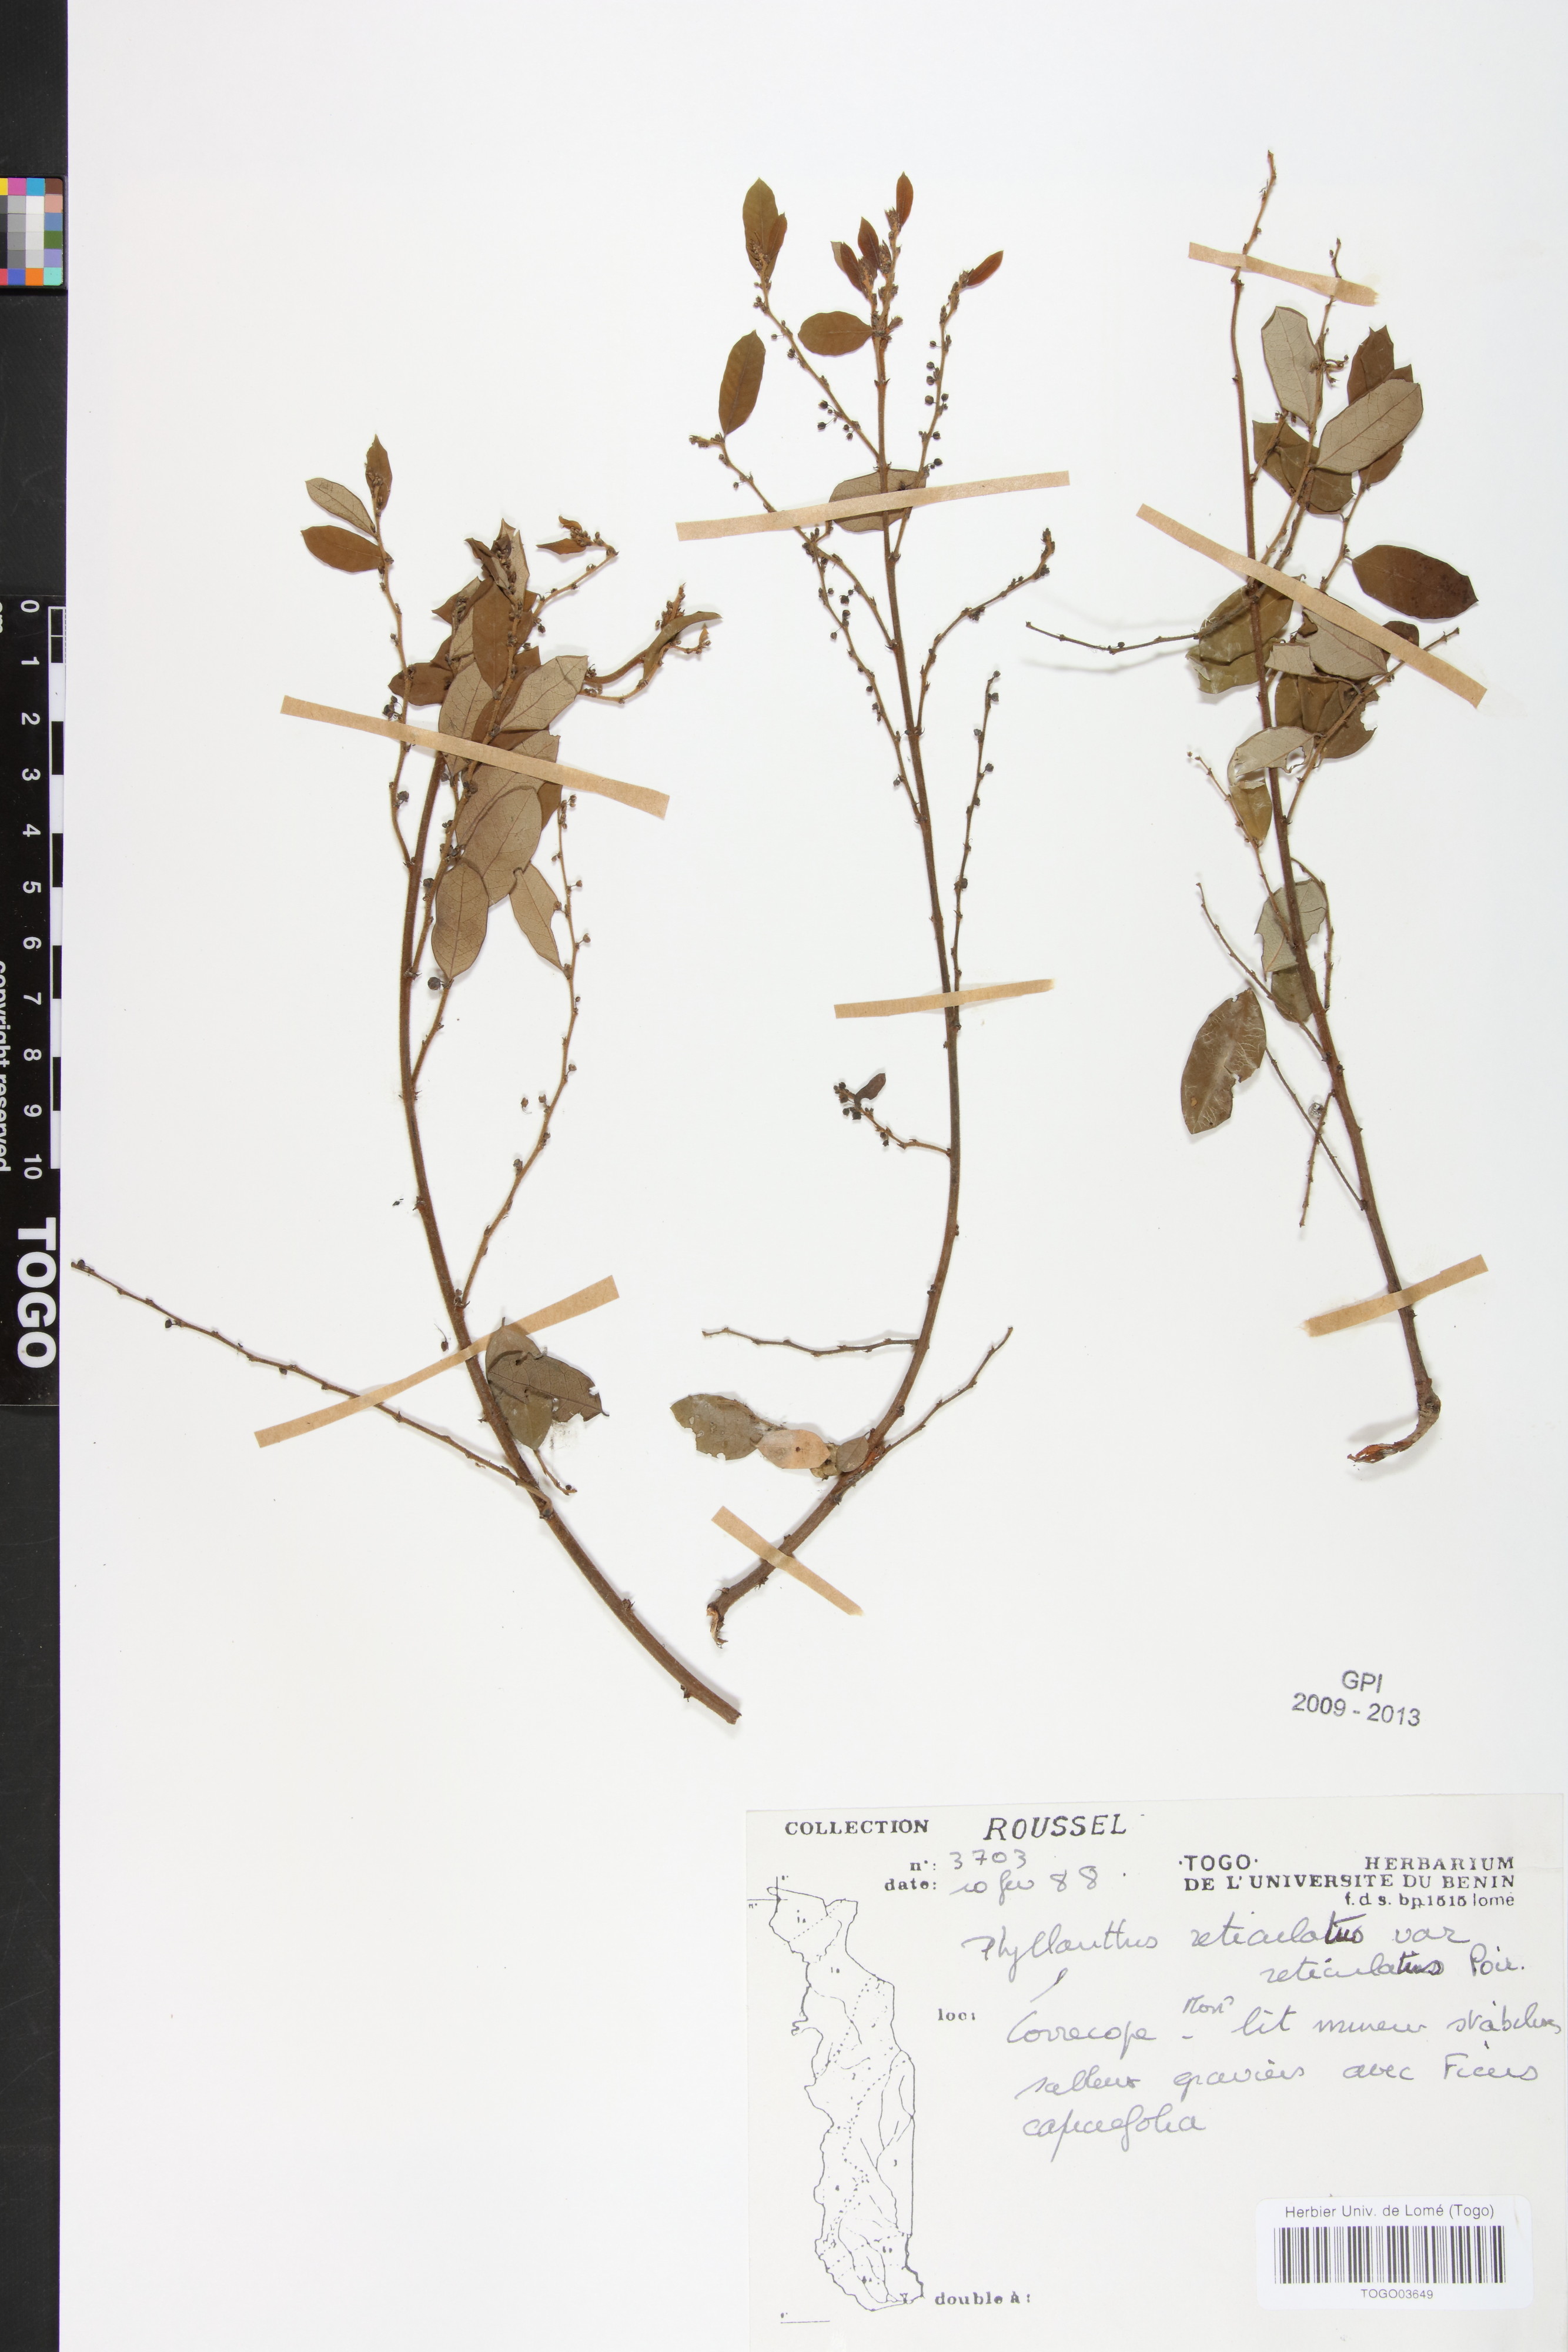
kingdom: Plantae
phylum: Tracheophyta
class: Magnoliopsida
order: Malpighiales
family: Phyllanthaceae
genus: Phyllanthus
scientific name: Phyllanthus reticulatus
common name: Potato bush
